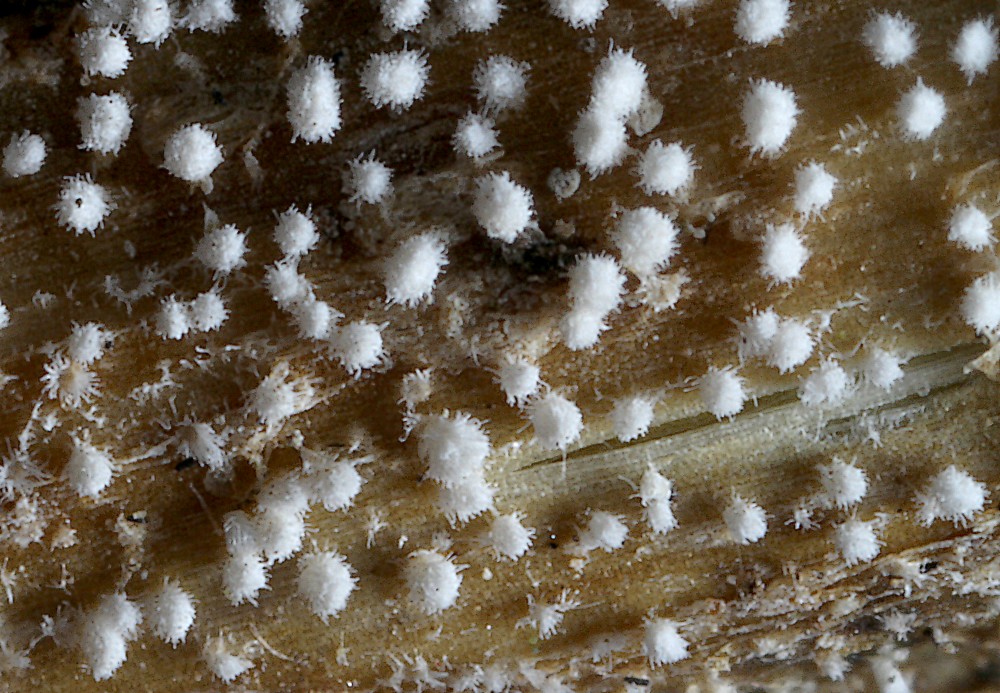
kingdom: Fungi
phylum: Basidiomycota
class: Agaricomycetes
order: Agaricales
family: Cyphellaceae
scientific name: Cyphellaceae
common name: hængeskåle
